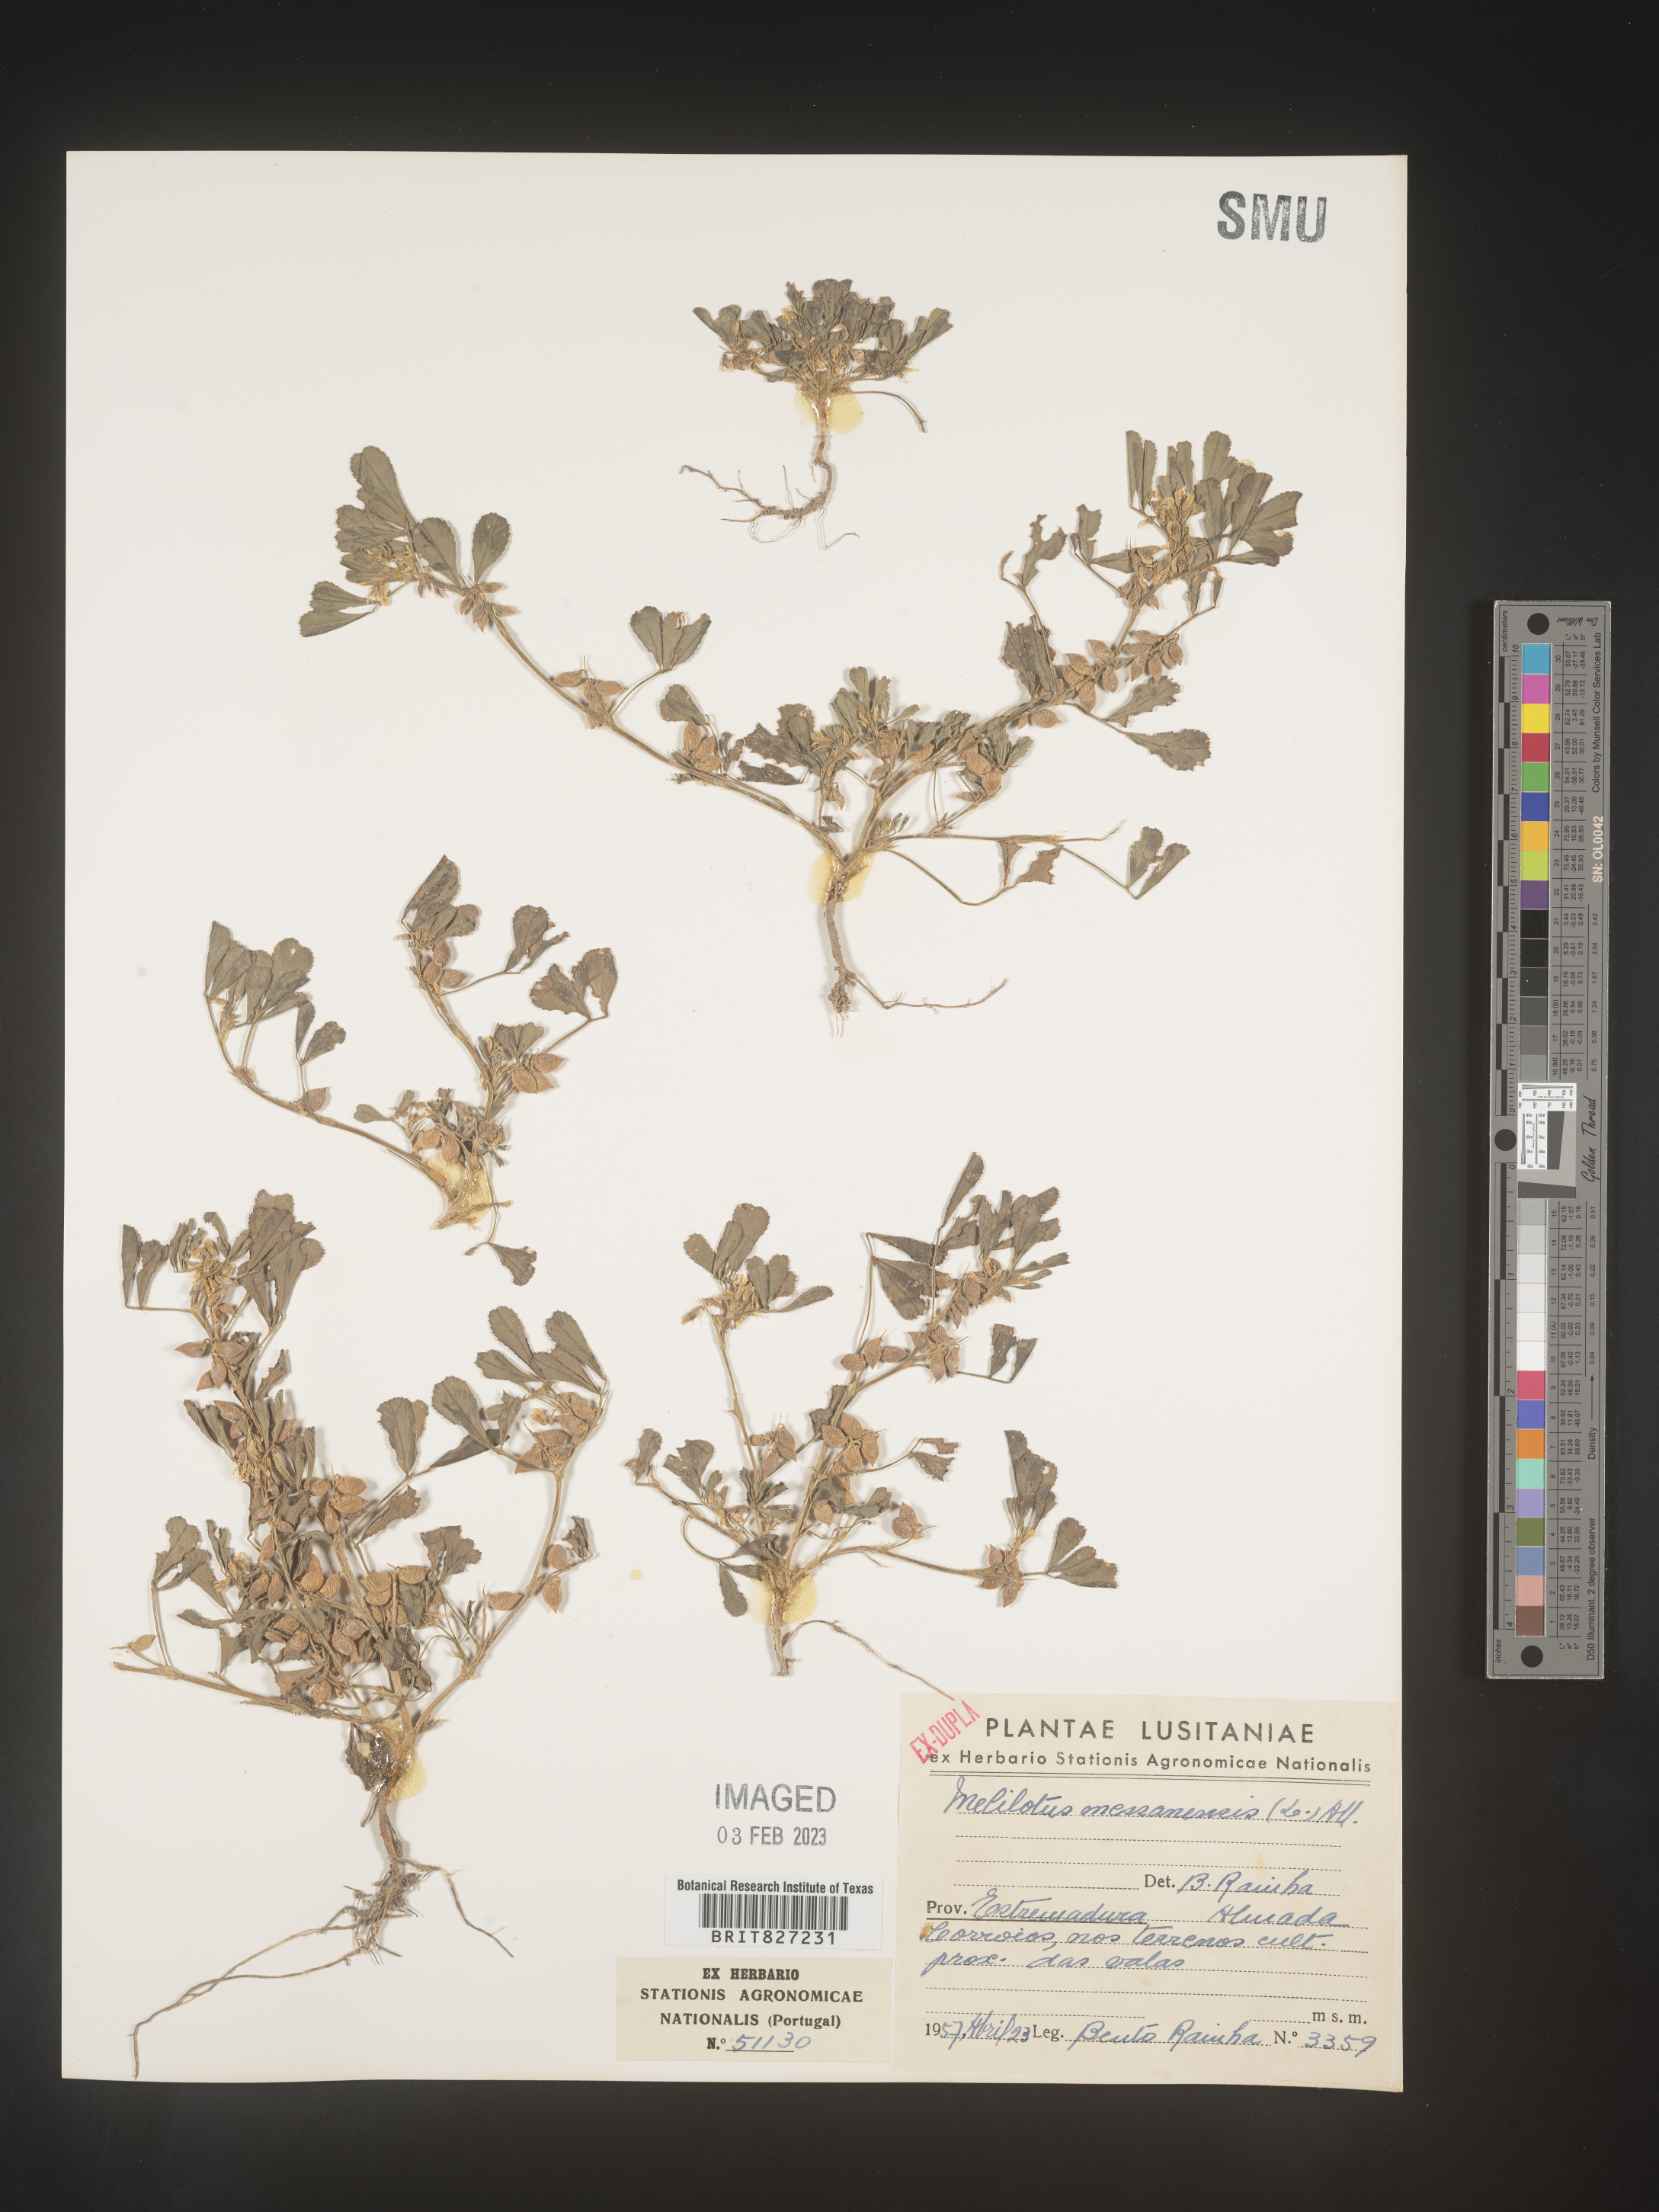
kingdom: Plantae
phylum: Tracheophyta
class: Magnoliopsida
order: Fabales
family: Fabaceae
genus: Melilotus
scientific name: Melilotus
